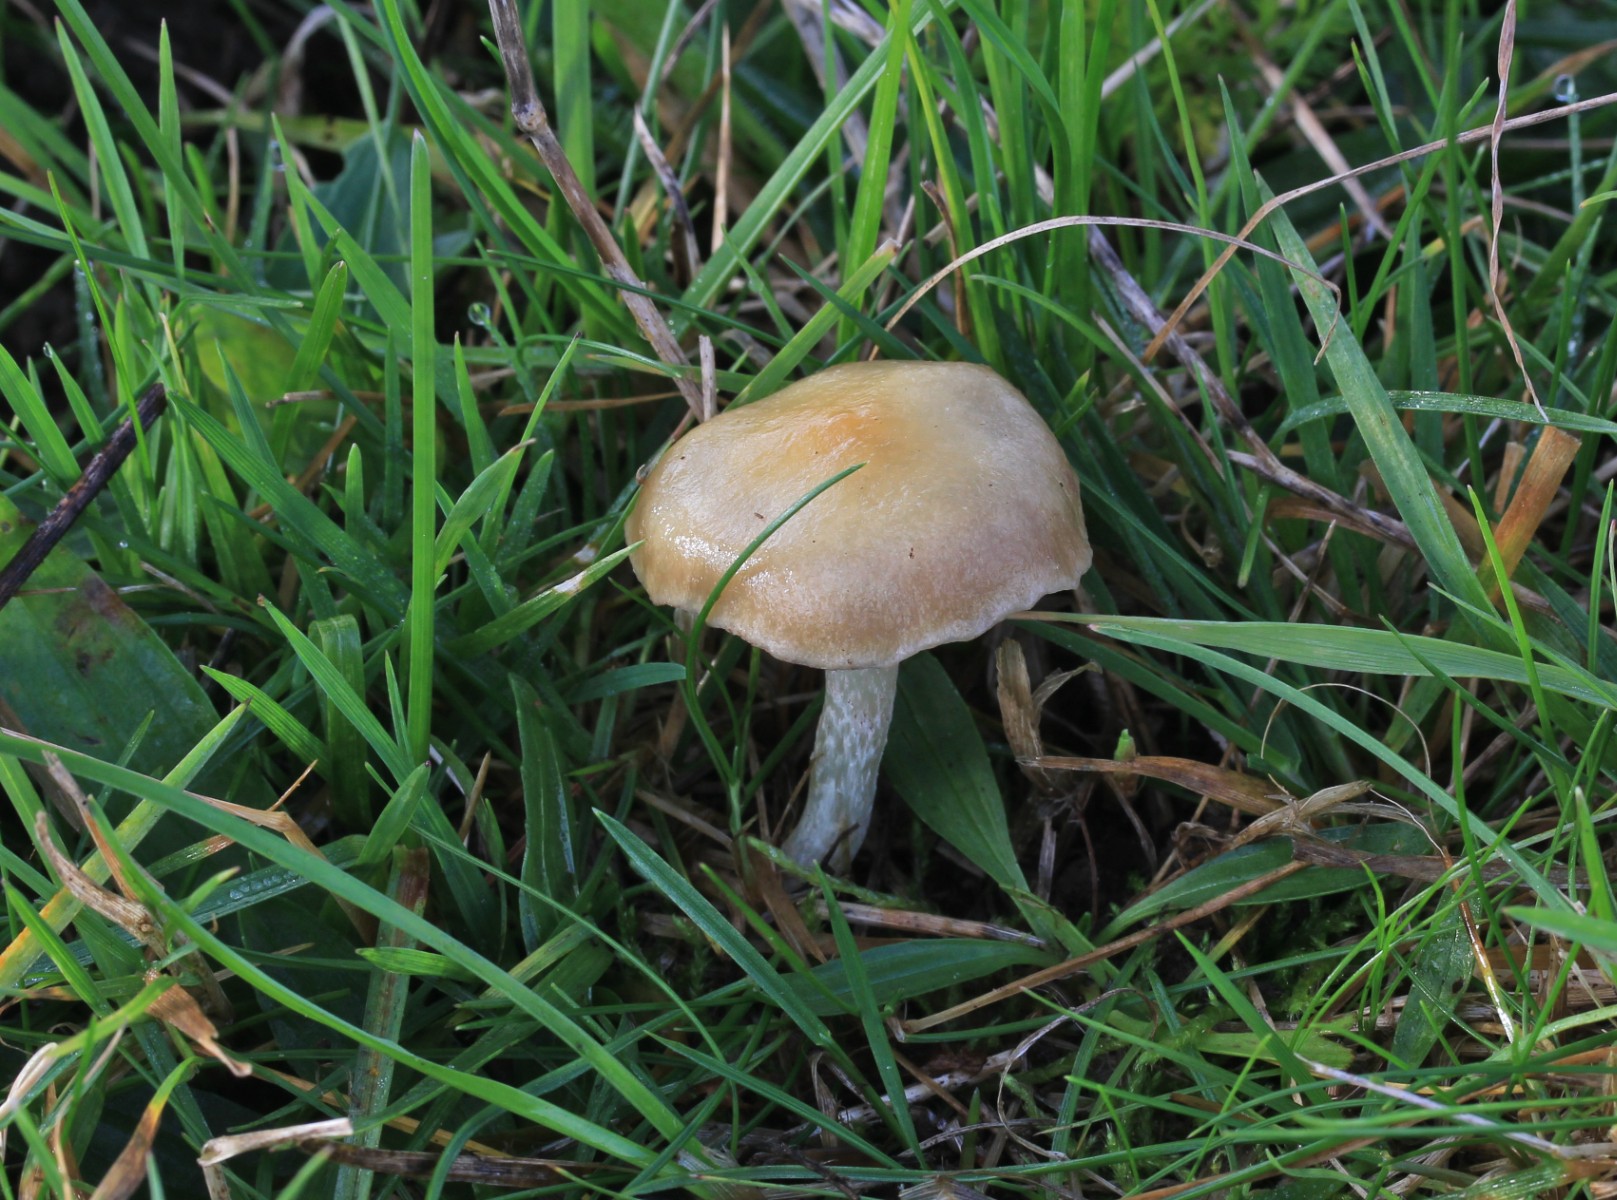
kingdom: Fungi
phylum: Basidiomycota
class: Agaricomycetes
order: Agaricales
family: Strophariaceae
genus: Stropharia
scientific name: Stropharia
